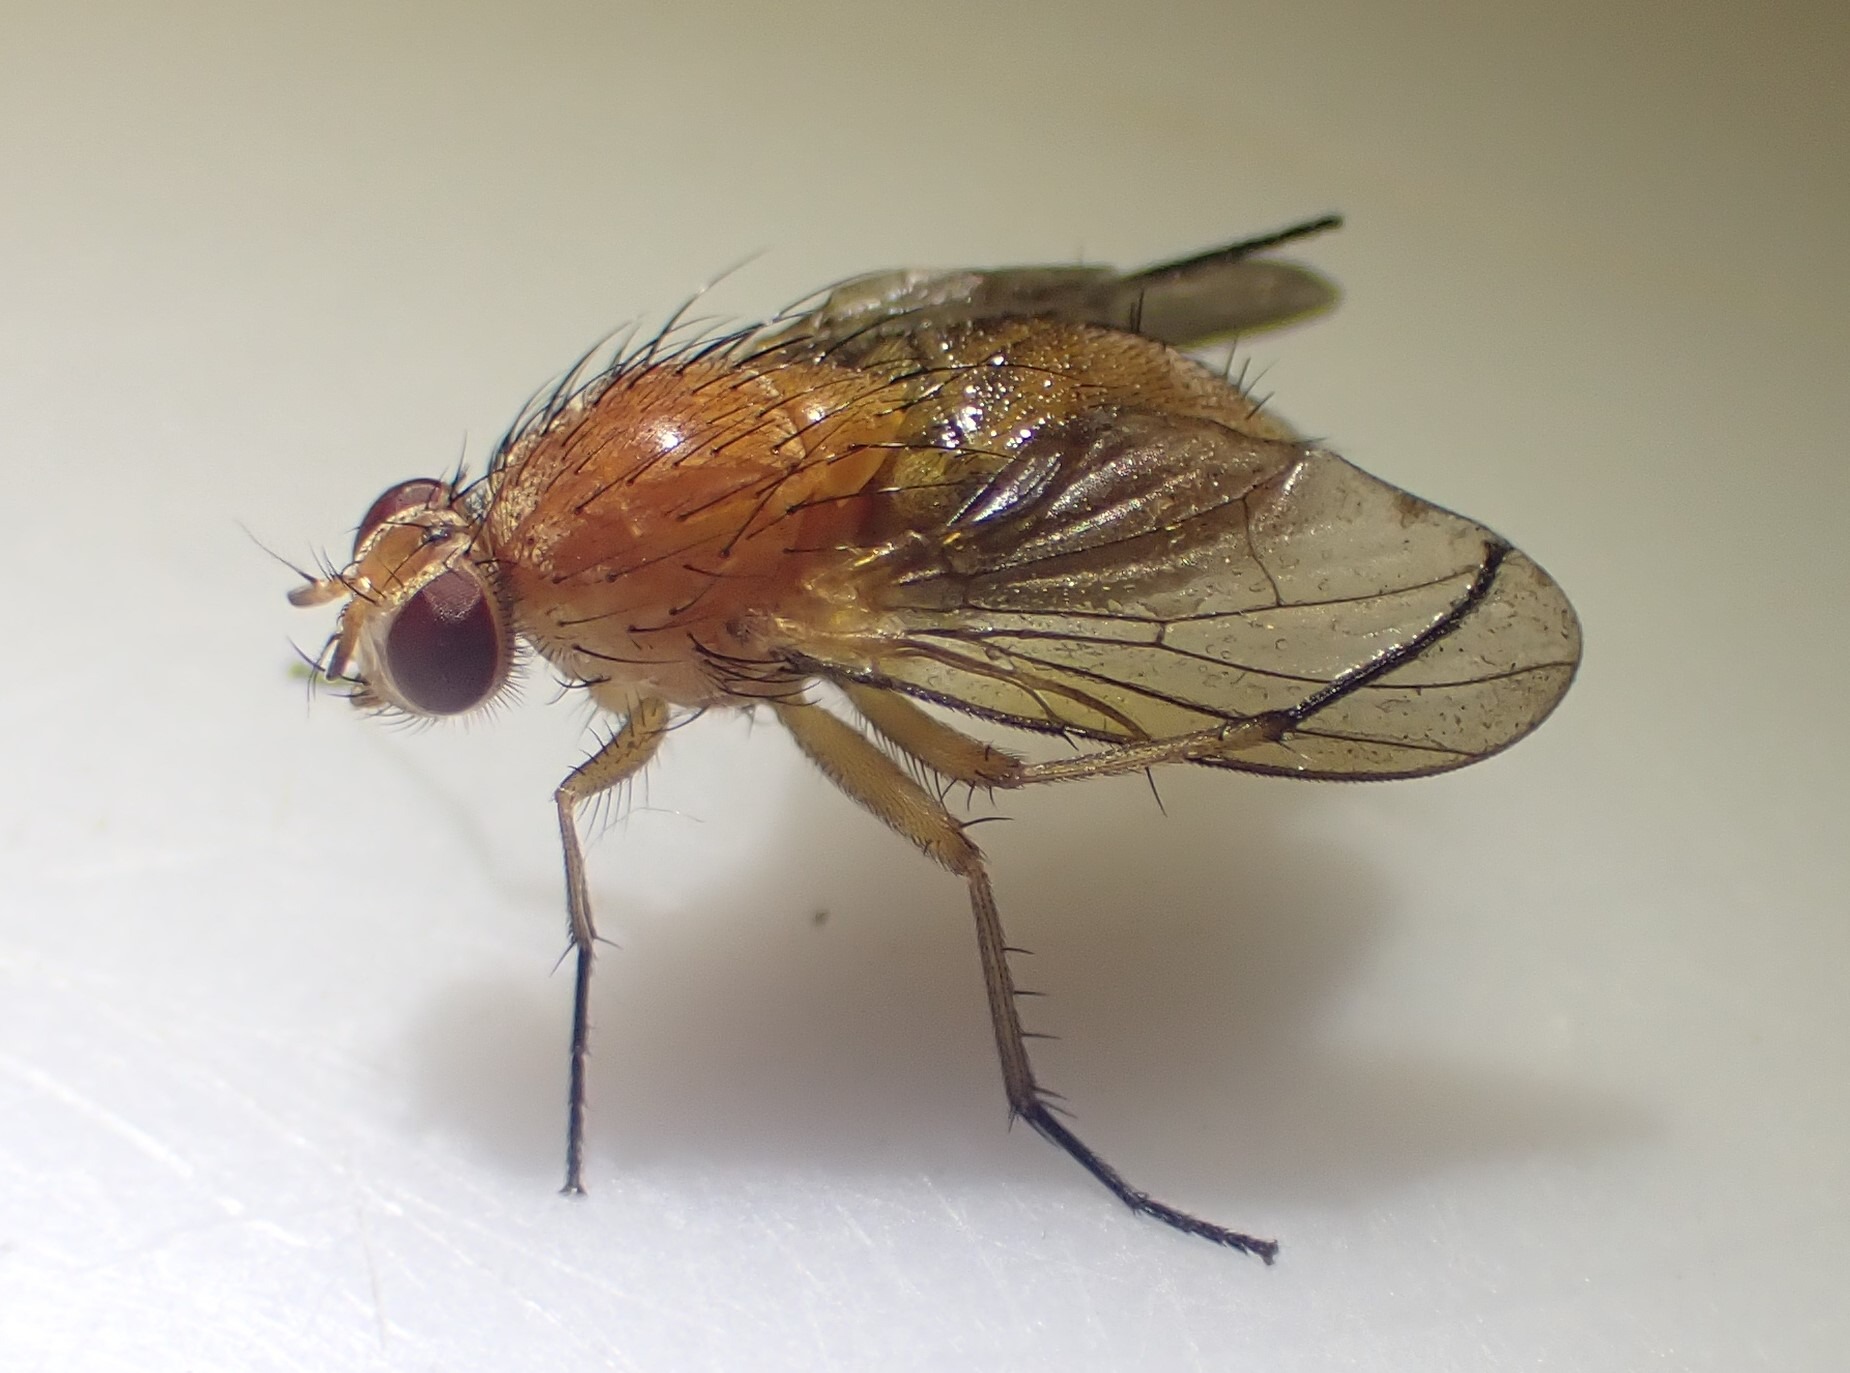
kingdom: Animalia
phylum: Arthropoda
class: Insecta
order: Diptera
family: Muscidae
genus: Phaonia
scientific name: Phaonia pallida
